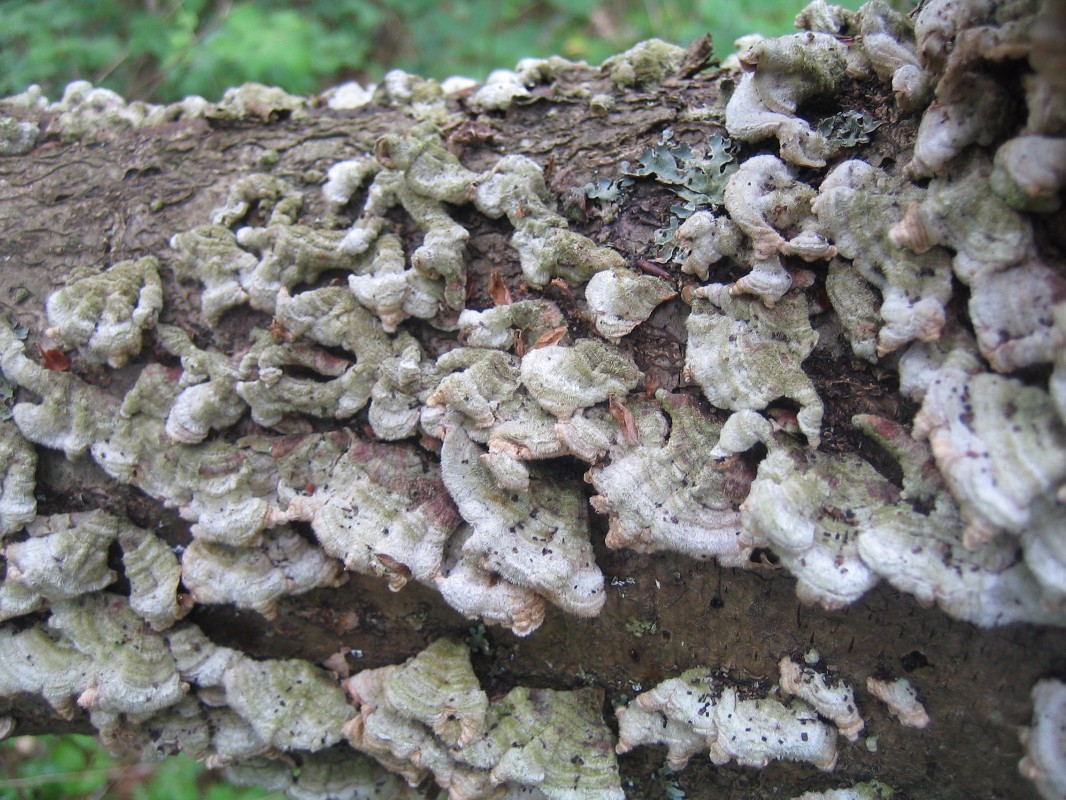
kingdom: Fungi
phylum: Basidiomycota
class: Agaricomycetes
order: Russulales
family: Stereaceae
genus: Stereum
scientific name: Stereum hirsutum
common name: håret lædersvamp
